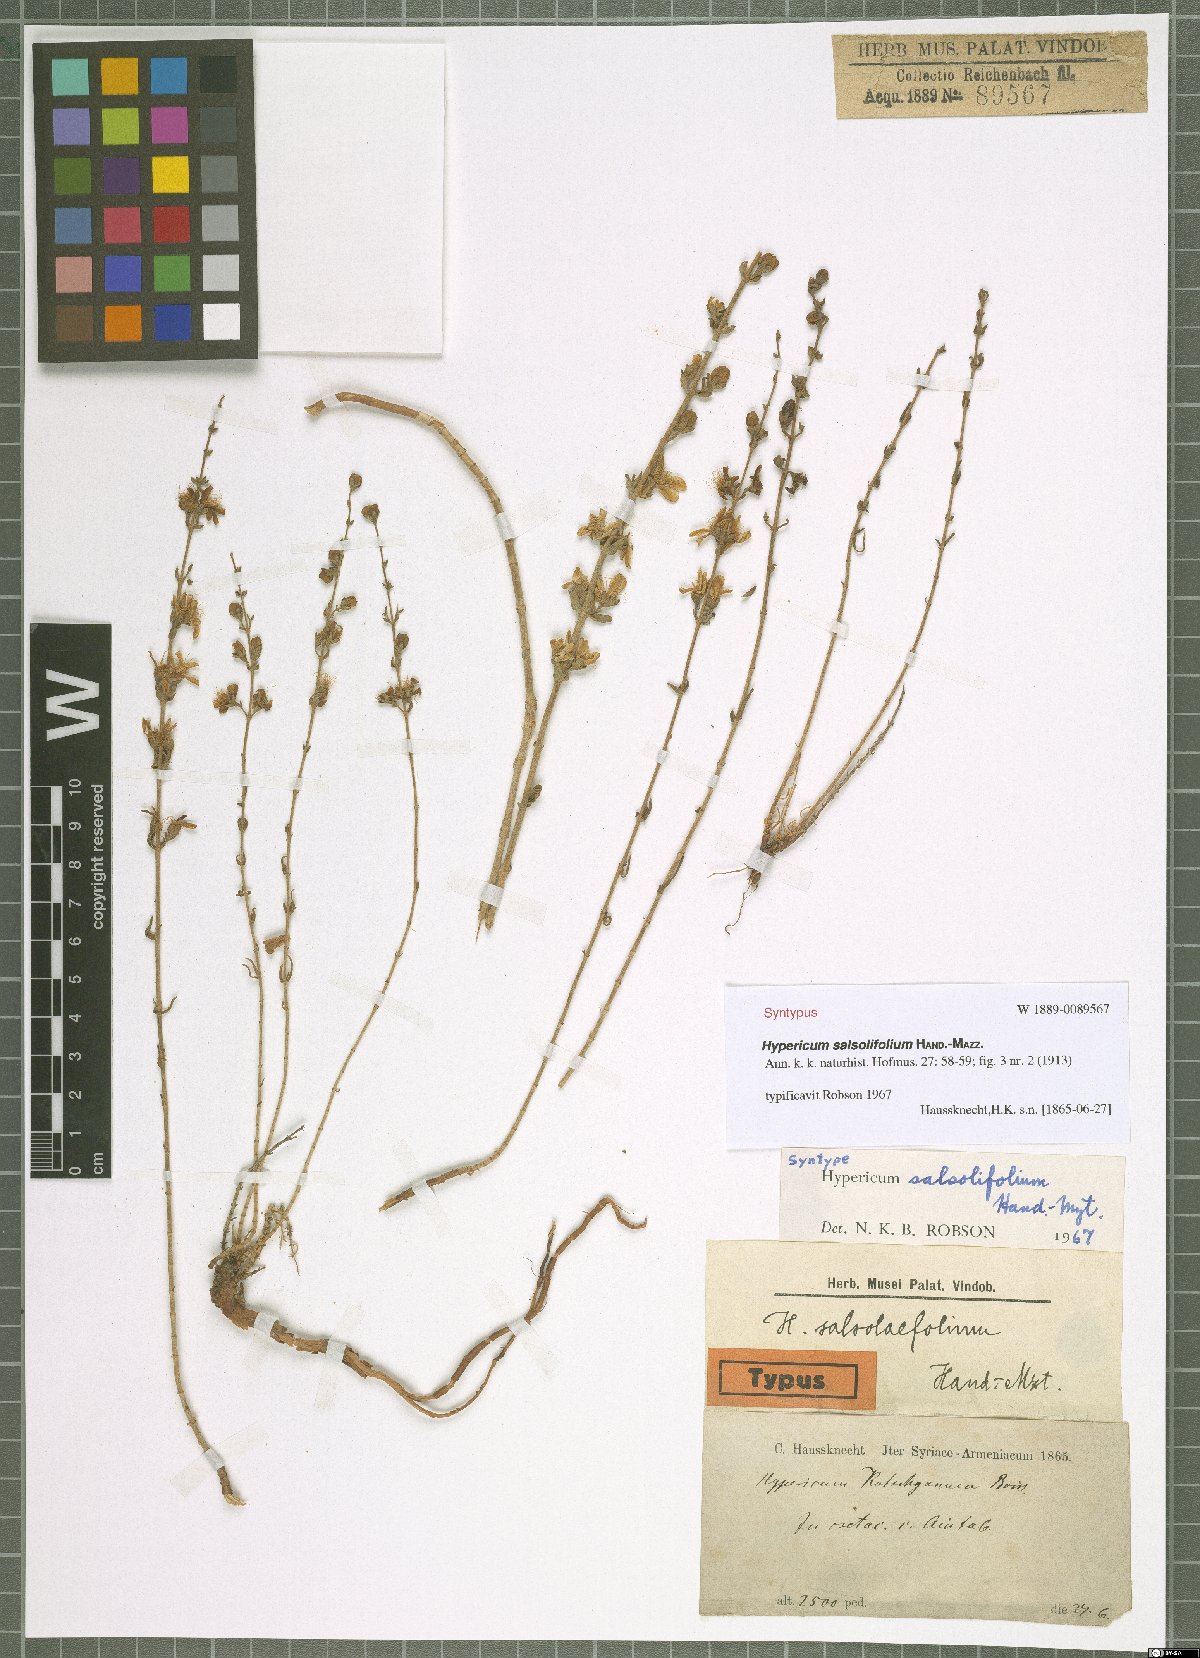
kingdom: Plantae
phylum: Tracheophyta
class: Magnoliopsida
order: Malpighiales
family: Hypericaceae
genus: Hypericum
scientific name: Hypericum salsolifolium
